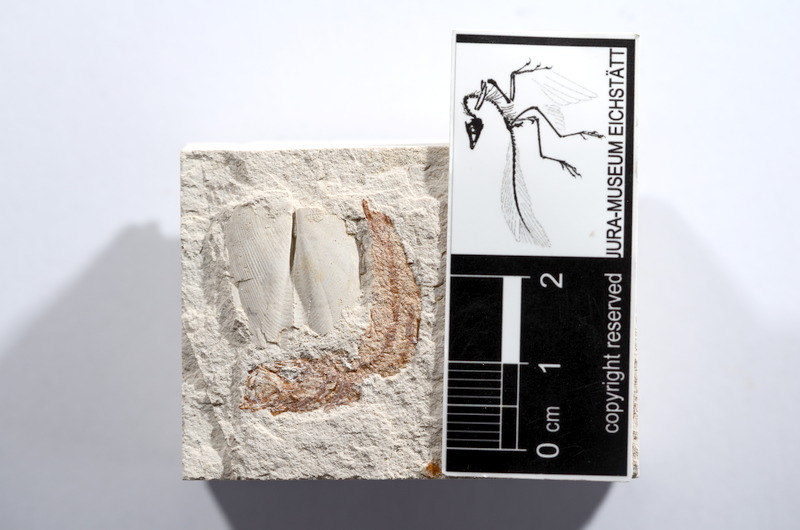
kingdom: Animalia
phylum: Chordata
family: Ascalaboidae
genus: Tharsis
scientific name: Tharsis dubius
